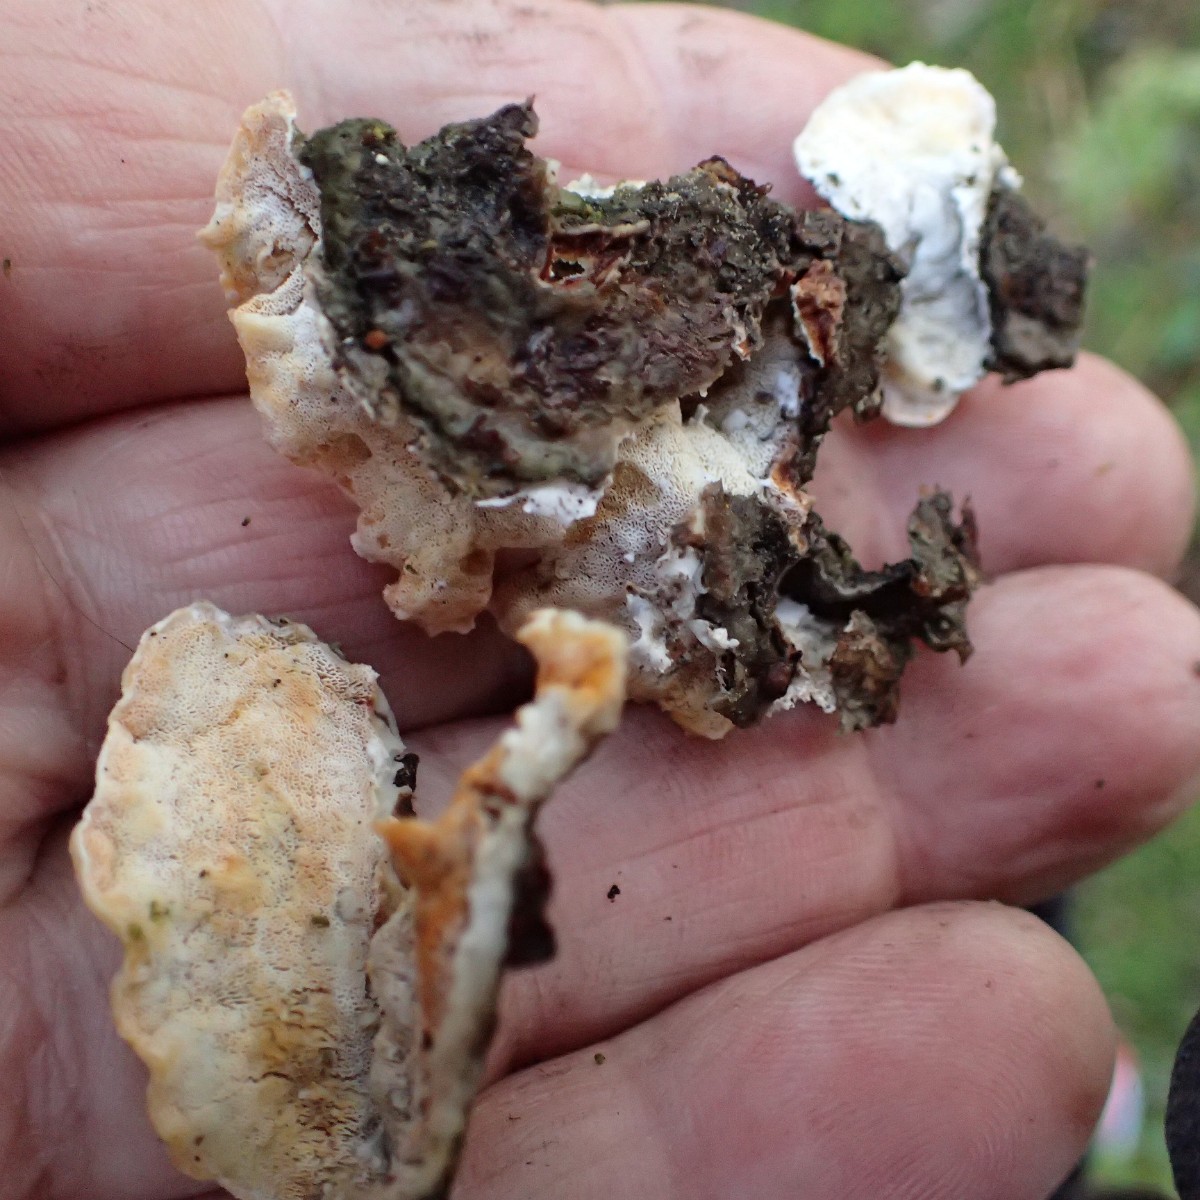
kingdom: Fungi
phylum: Basidiomycota
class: Agaricomycetes
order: Polyporales
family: Incrustoporiaceae
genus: Skeletocutis
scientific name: Skeletocutis amorpha
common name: orange krystalporesvamp
